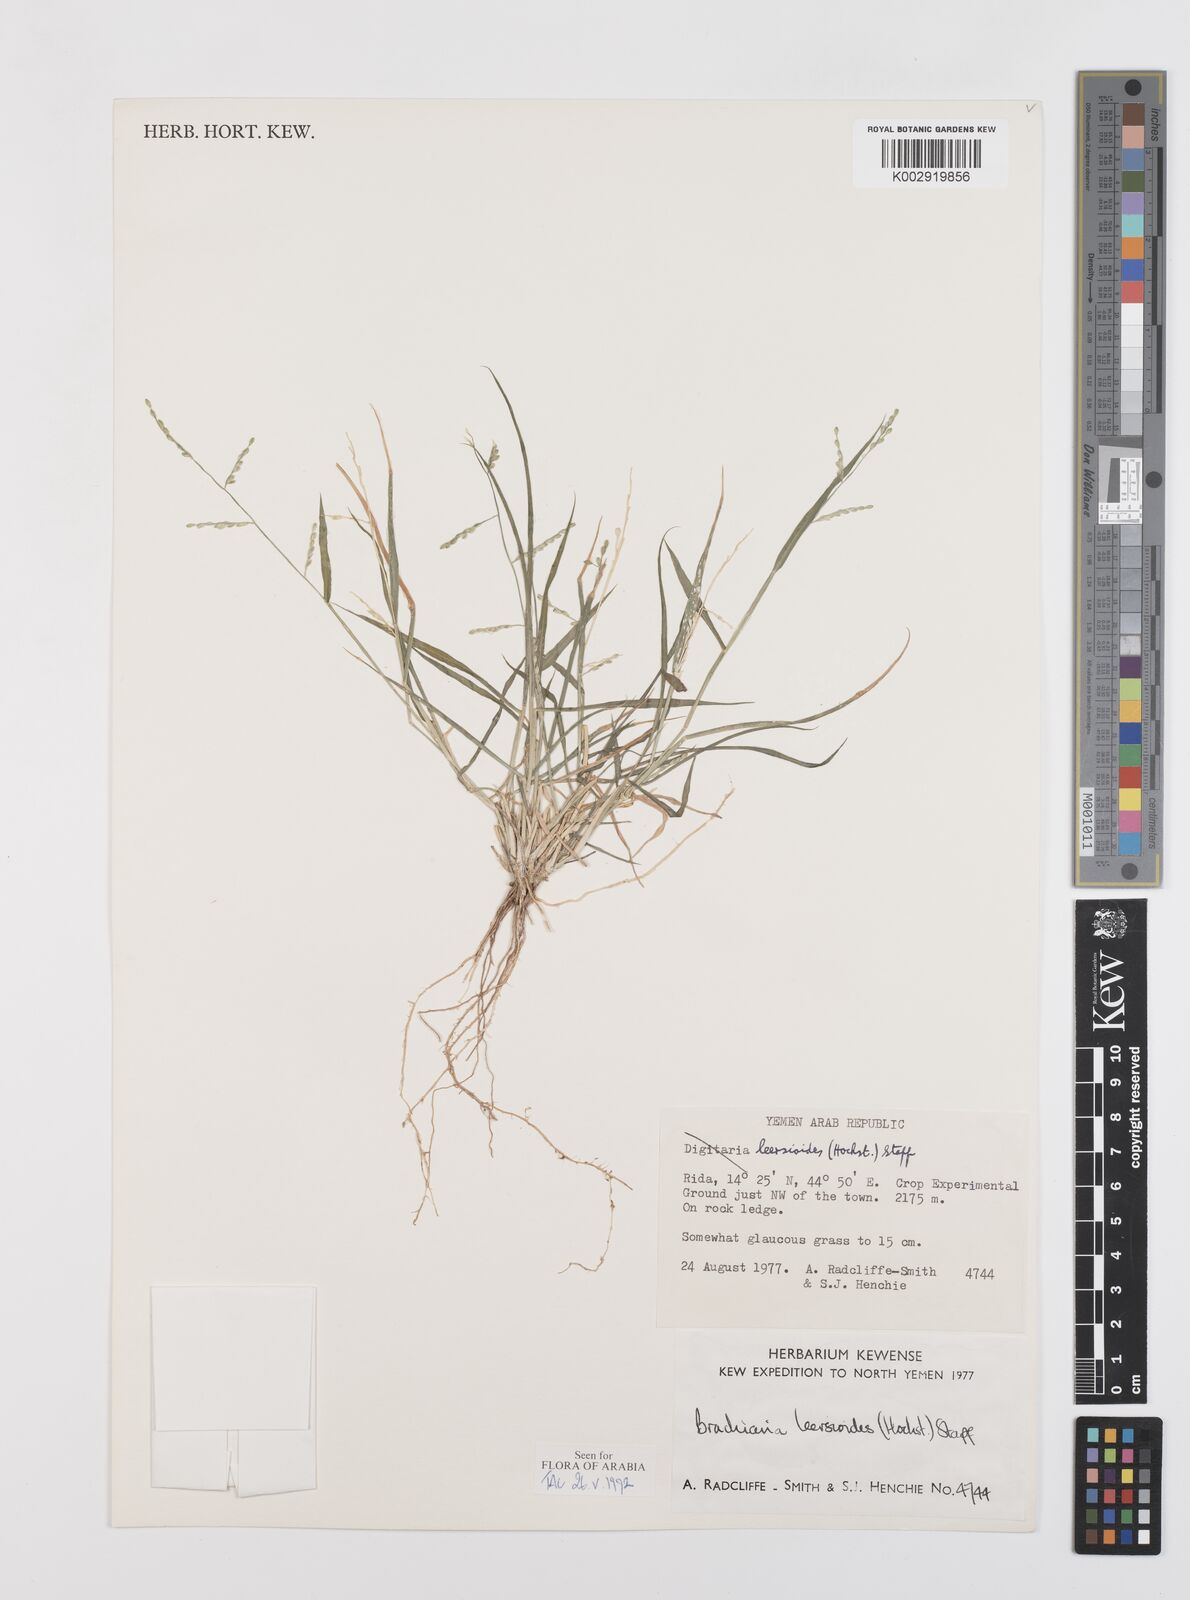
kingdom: Plantae
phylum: Tracheophyta
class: Liliopsida
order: Poales
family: Poaceae
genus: Urochloa
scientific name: Urochloa leersioides
